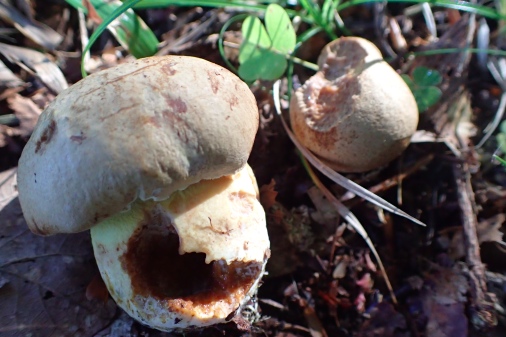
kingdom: Fungi
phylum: Basidiomycota
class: Agaricomycetes
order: Boletales
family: Boletaceae
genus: Butyriboletus
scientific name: Butyriboletus appendiculatus
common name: tenstokket rørhat
